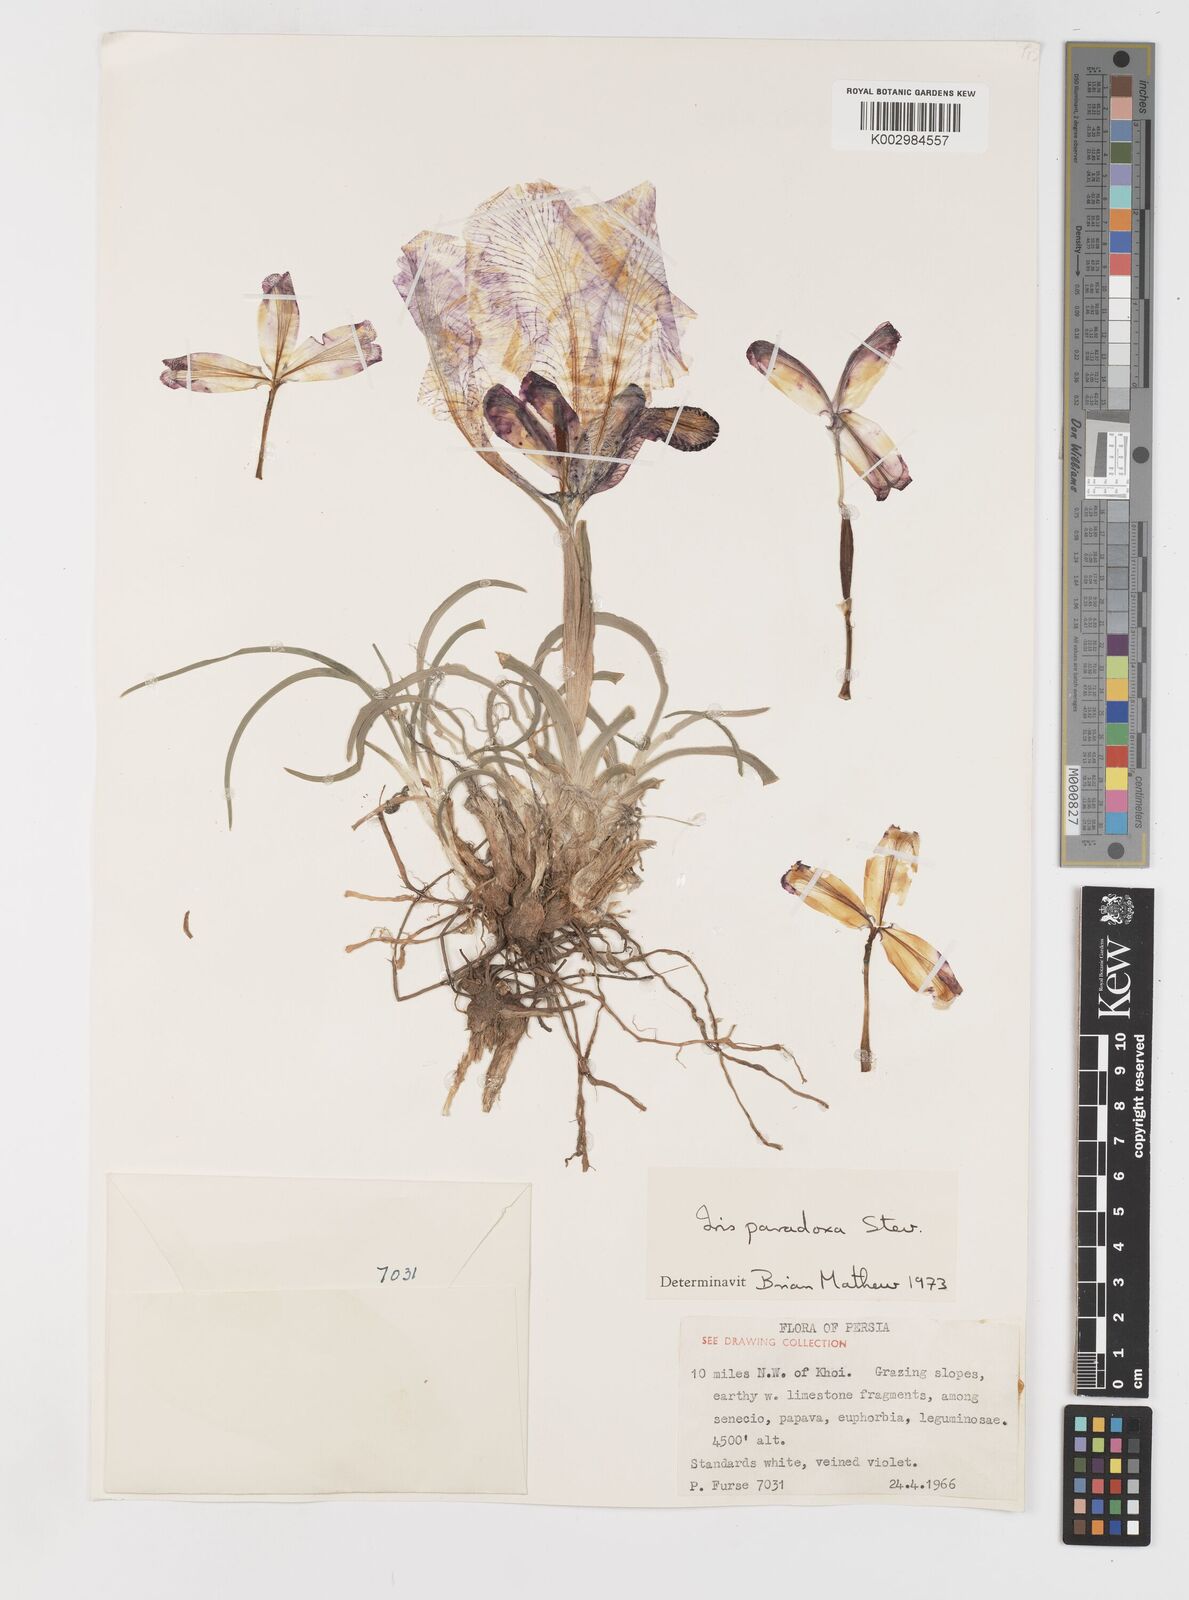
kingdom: Plantae
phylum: Tracheophyta
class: Liliopsida
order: Asparagales
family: Iridaceae
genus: Iris
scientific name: Iris paradoxa
